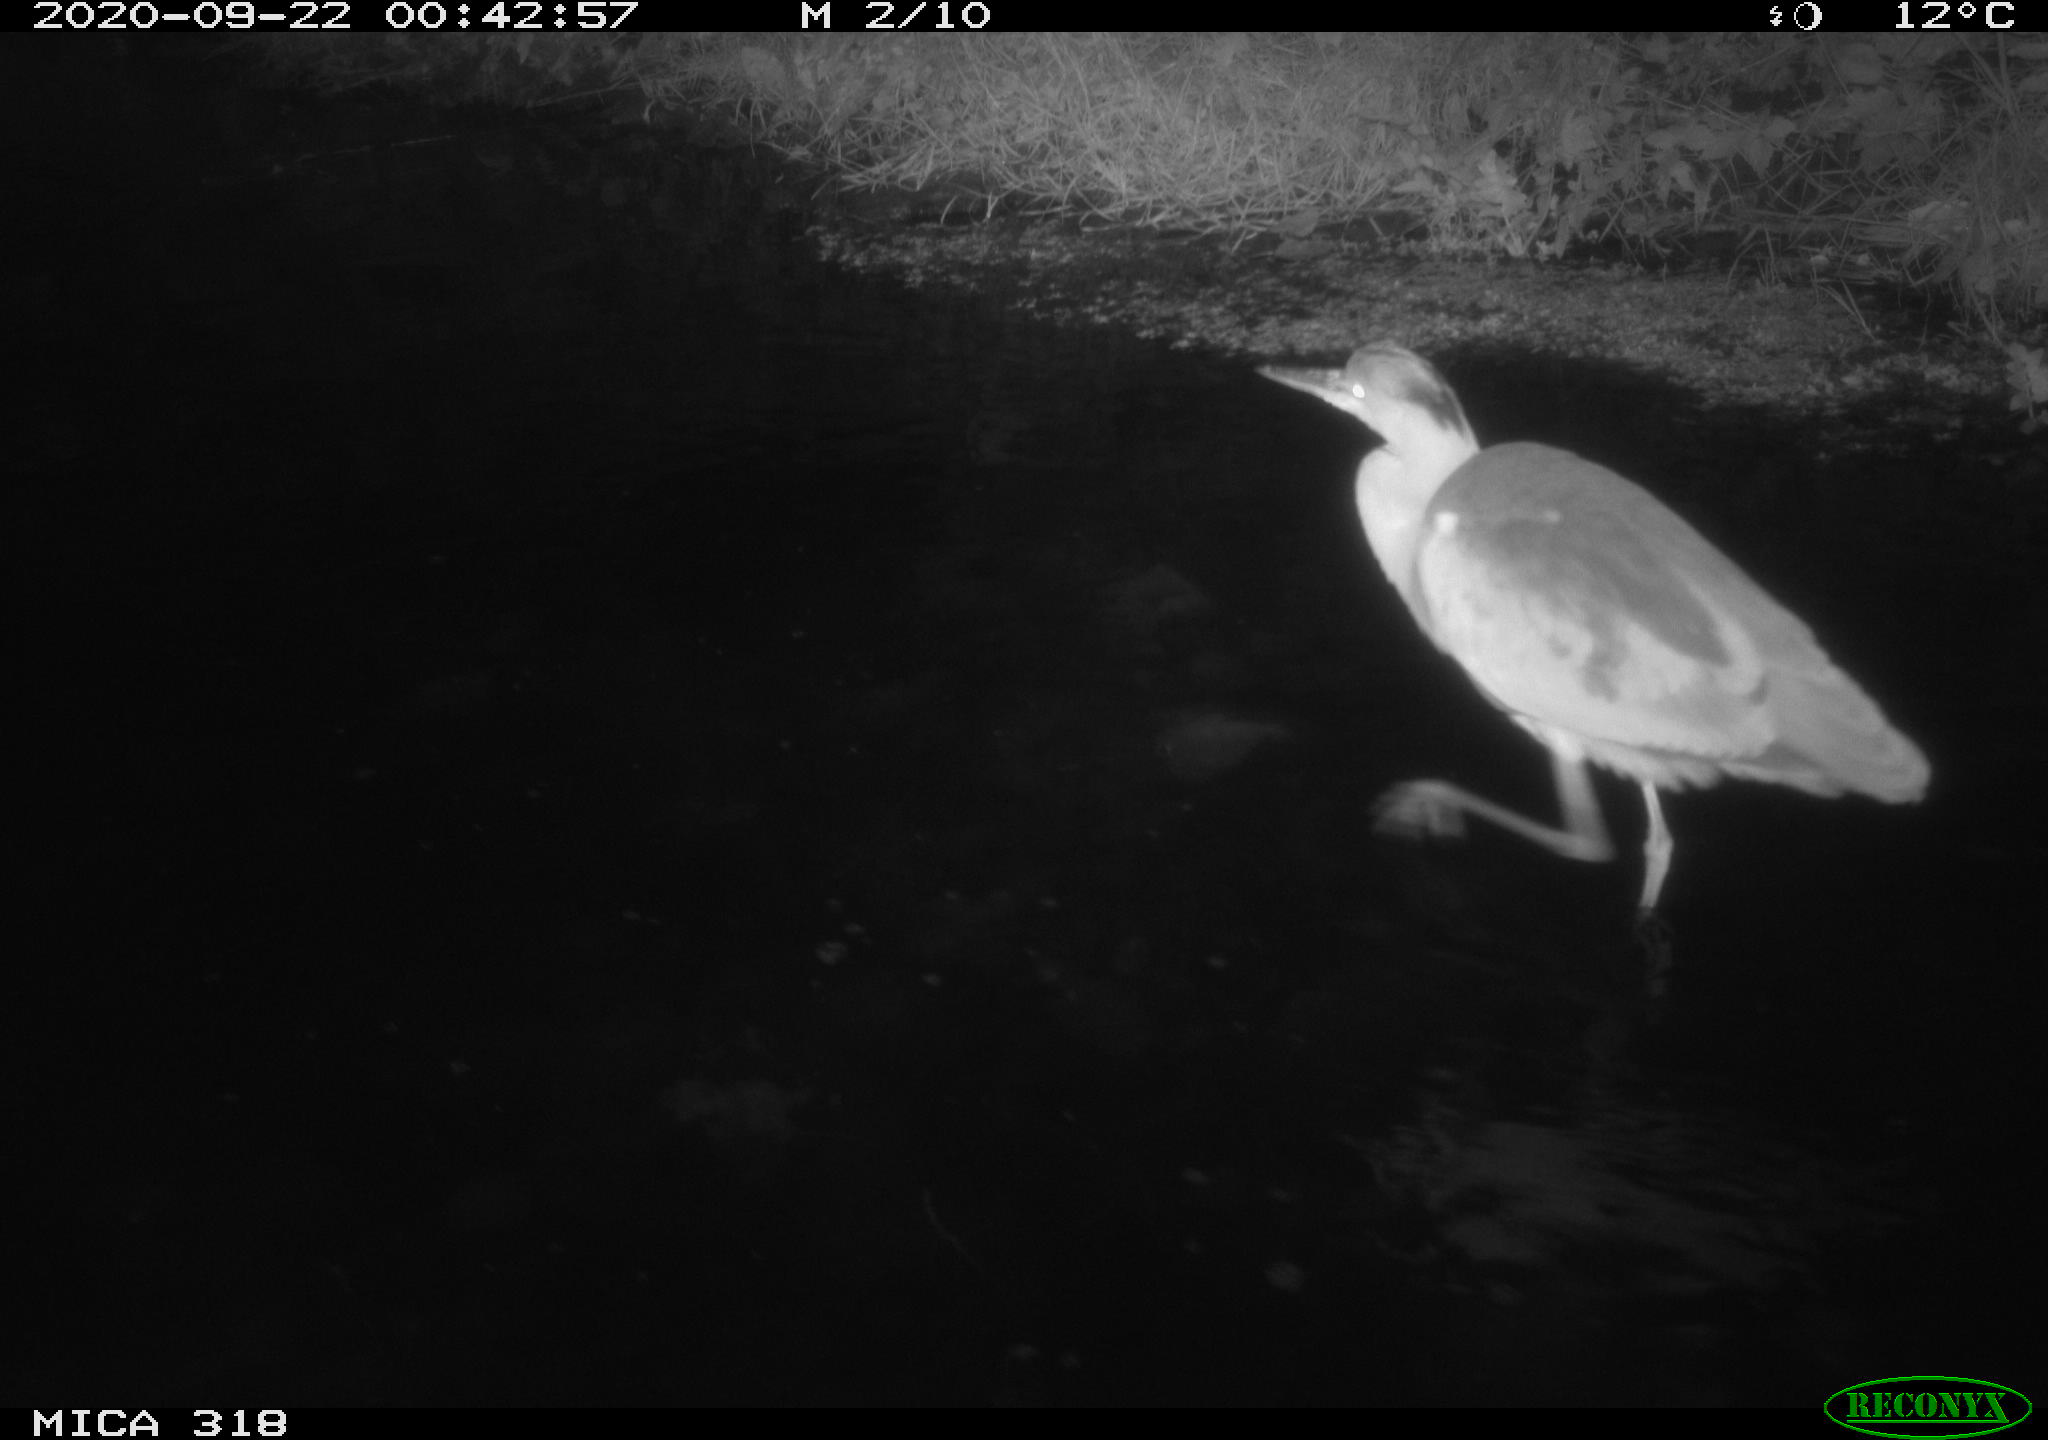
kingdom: Animalia
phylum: Chordata
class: Aves
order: Pelecaniformes
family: Ardeidae
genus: Ardea
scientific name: Ardea
